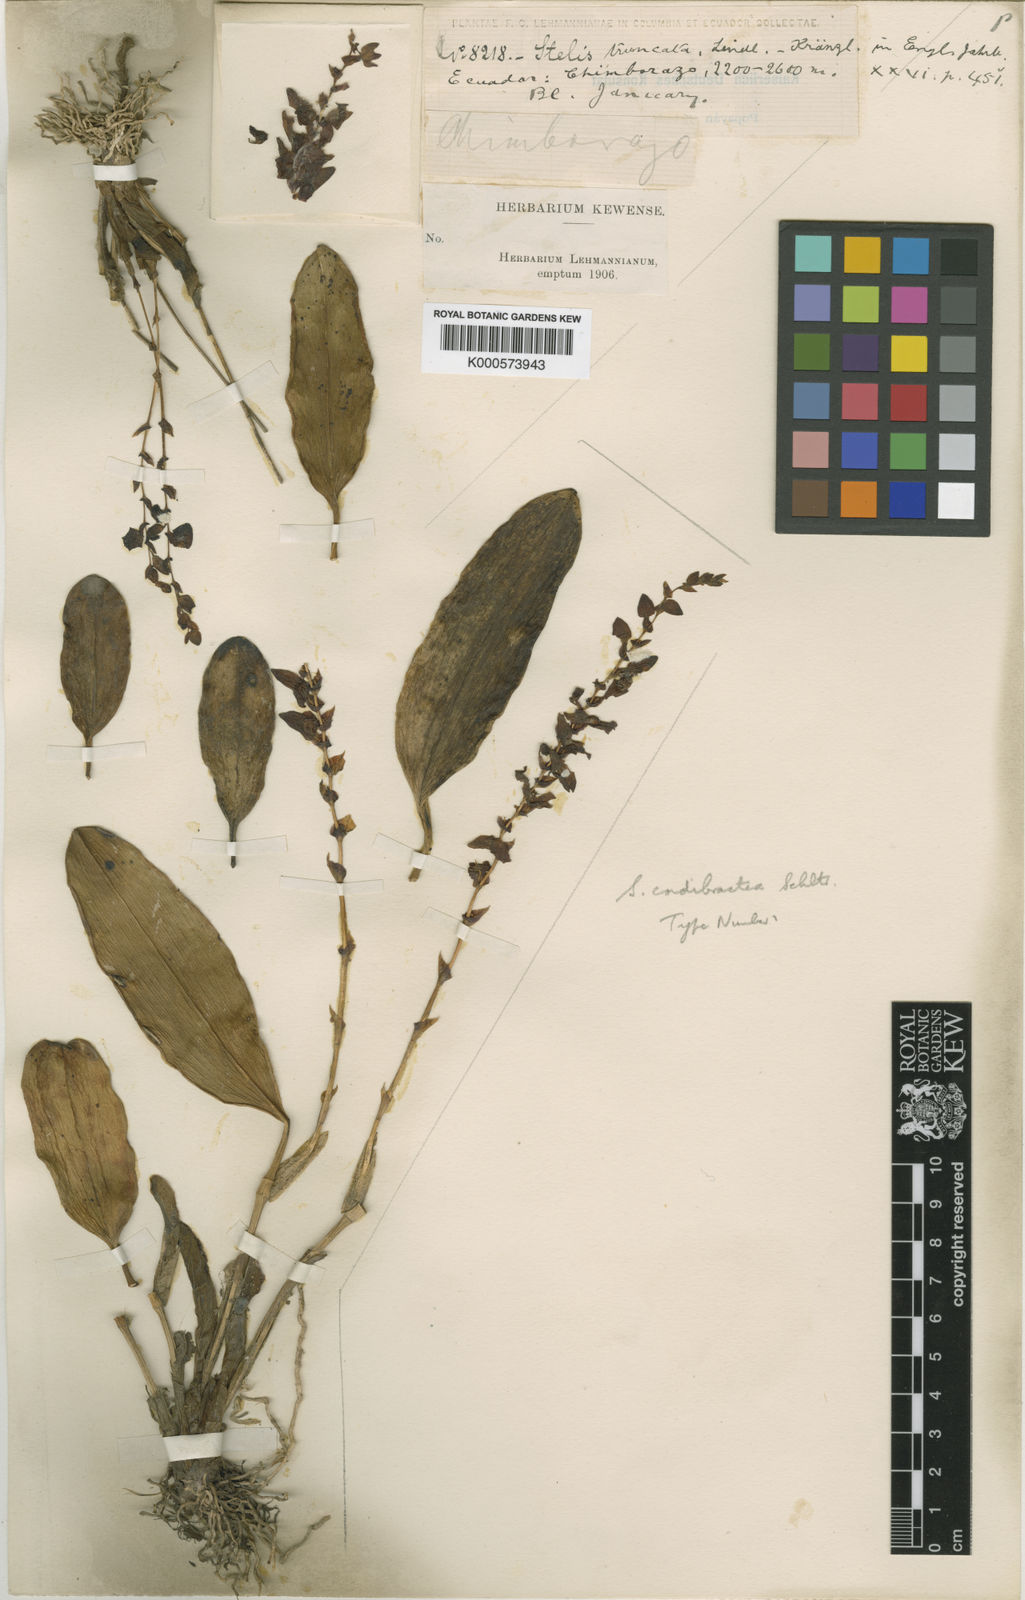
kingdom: Plantae
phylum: Tracheophyta
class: Liliopsida
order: Asparagales
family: Orchidaceae
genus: Stelis
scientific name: Stelis maxima
